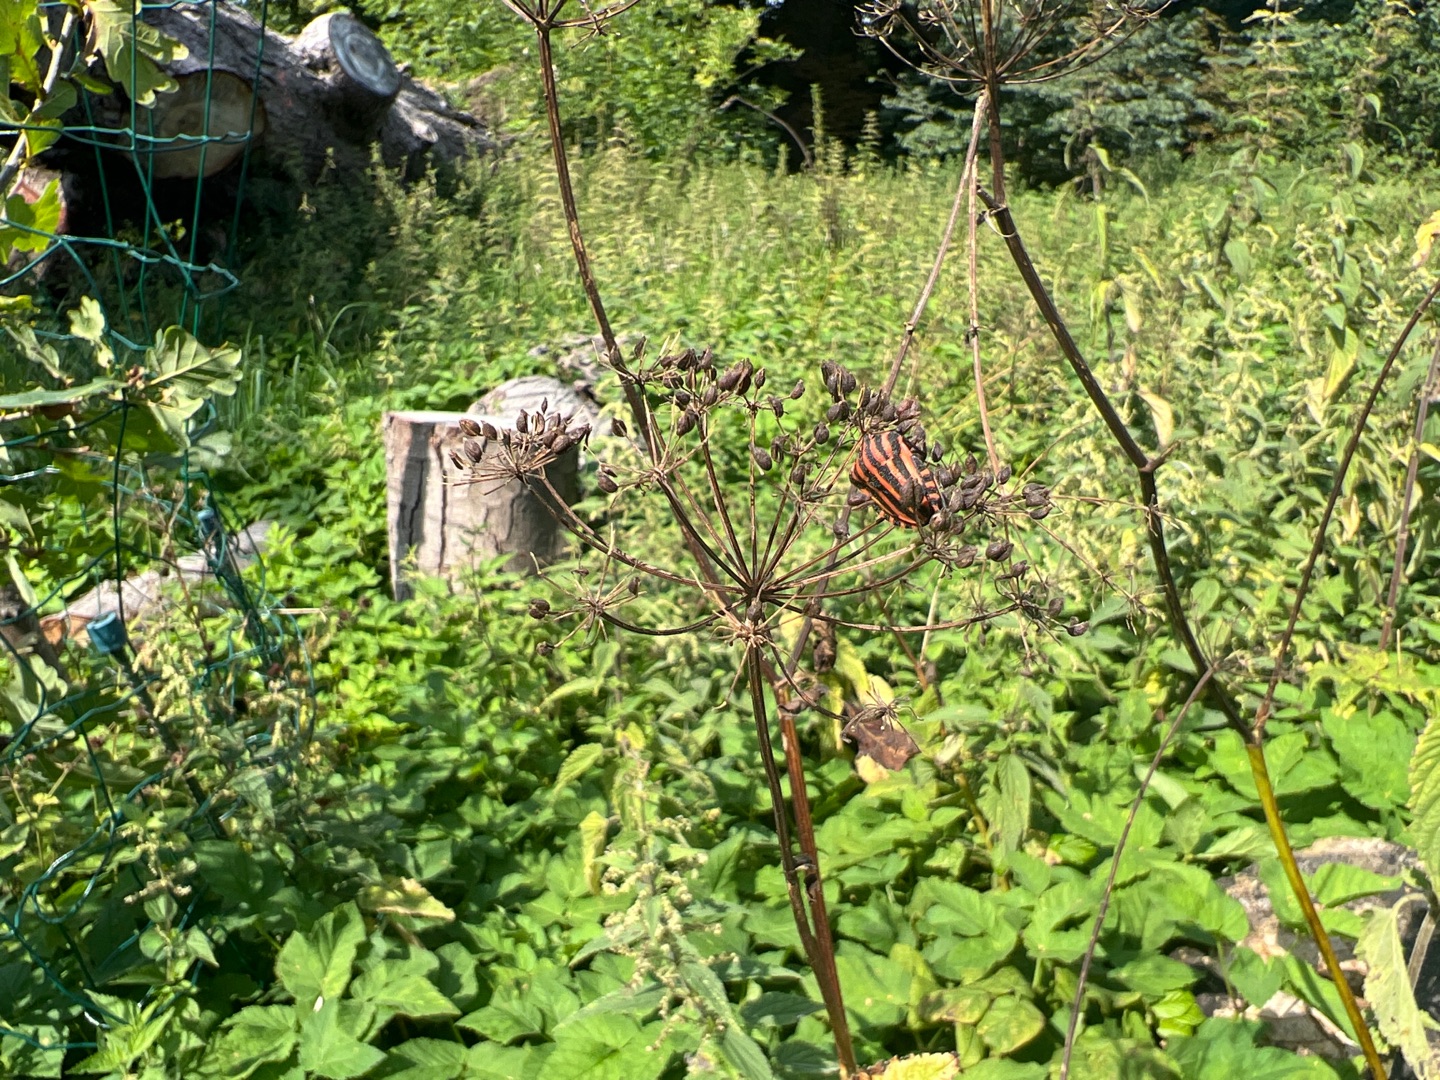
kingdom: Animalia
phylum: Arthropoda
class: Insecta
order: Hemiptera
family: Pentatomidae
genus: Graphosoma
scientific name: Graphosoma italicum
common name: Stribetæge
